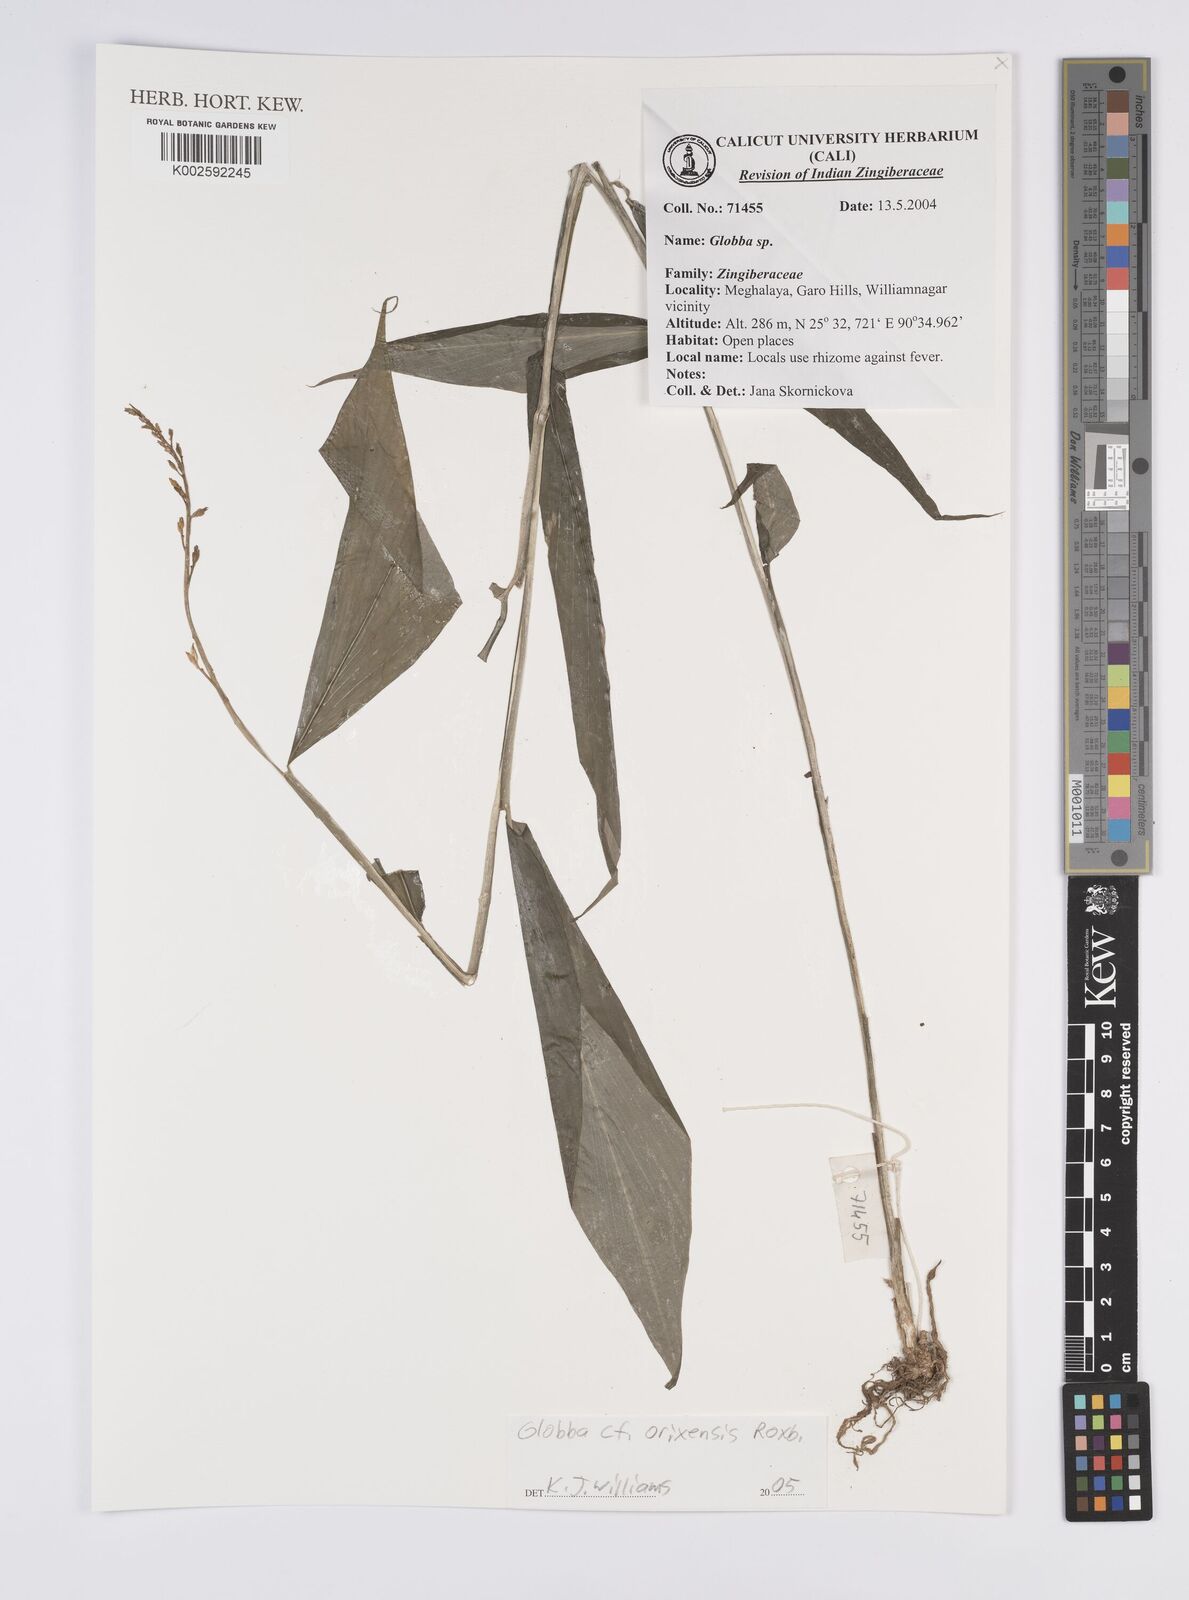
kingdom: Plantae
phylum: Tracheophyta
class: Liliopsida
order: Zingiberales
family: Zingiberaceae
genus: Globba
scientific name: Globba orixensis
